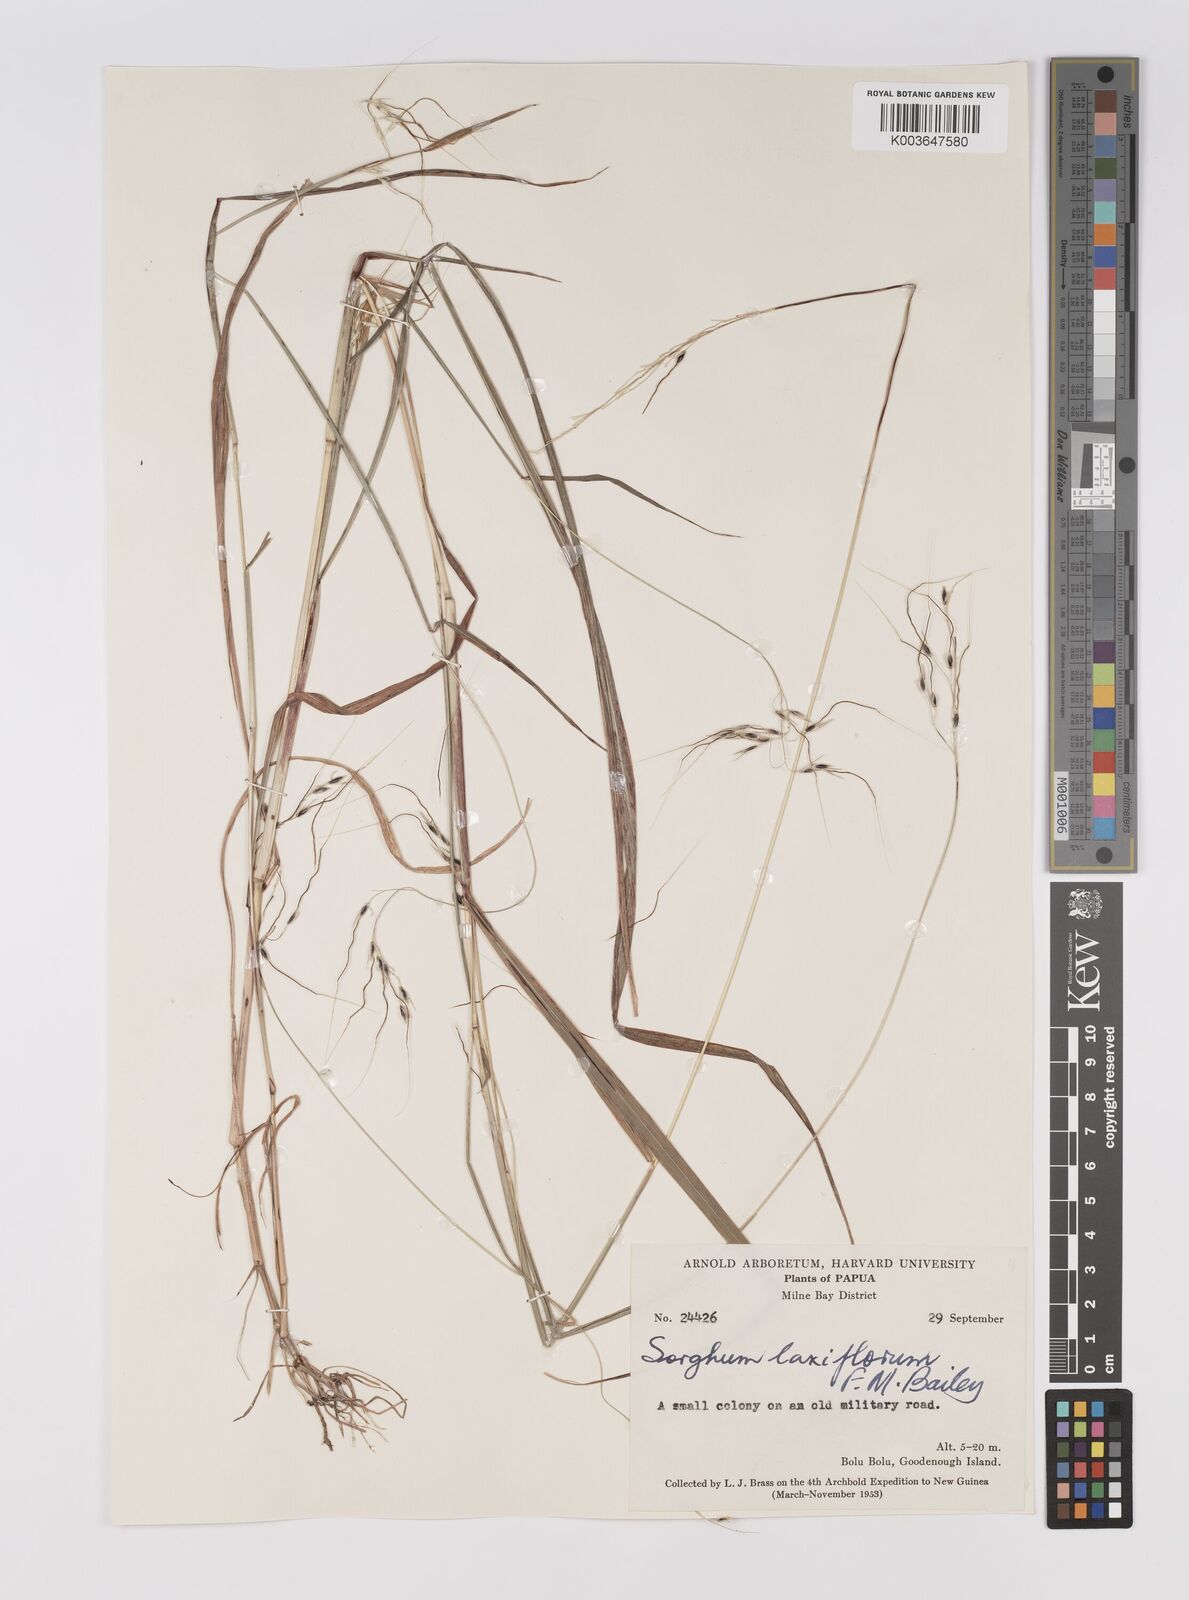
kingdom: Plantae
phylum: Tracheophyta
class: Liliopsida
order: Poales
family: Poaceae
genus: Sorghum
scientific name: Sorghum laxiflorum
